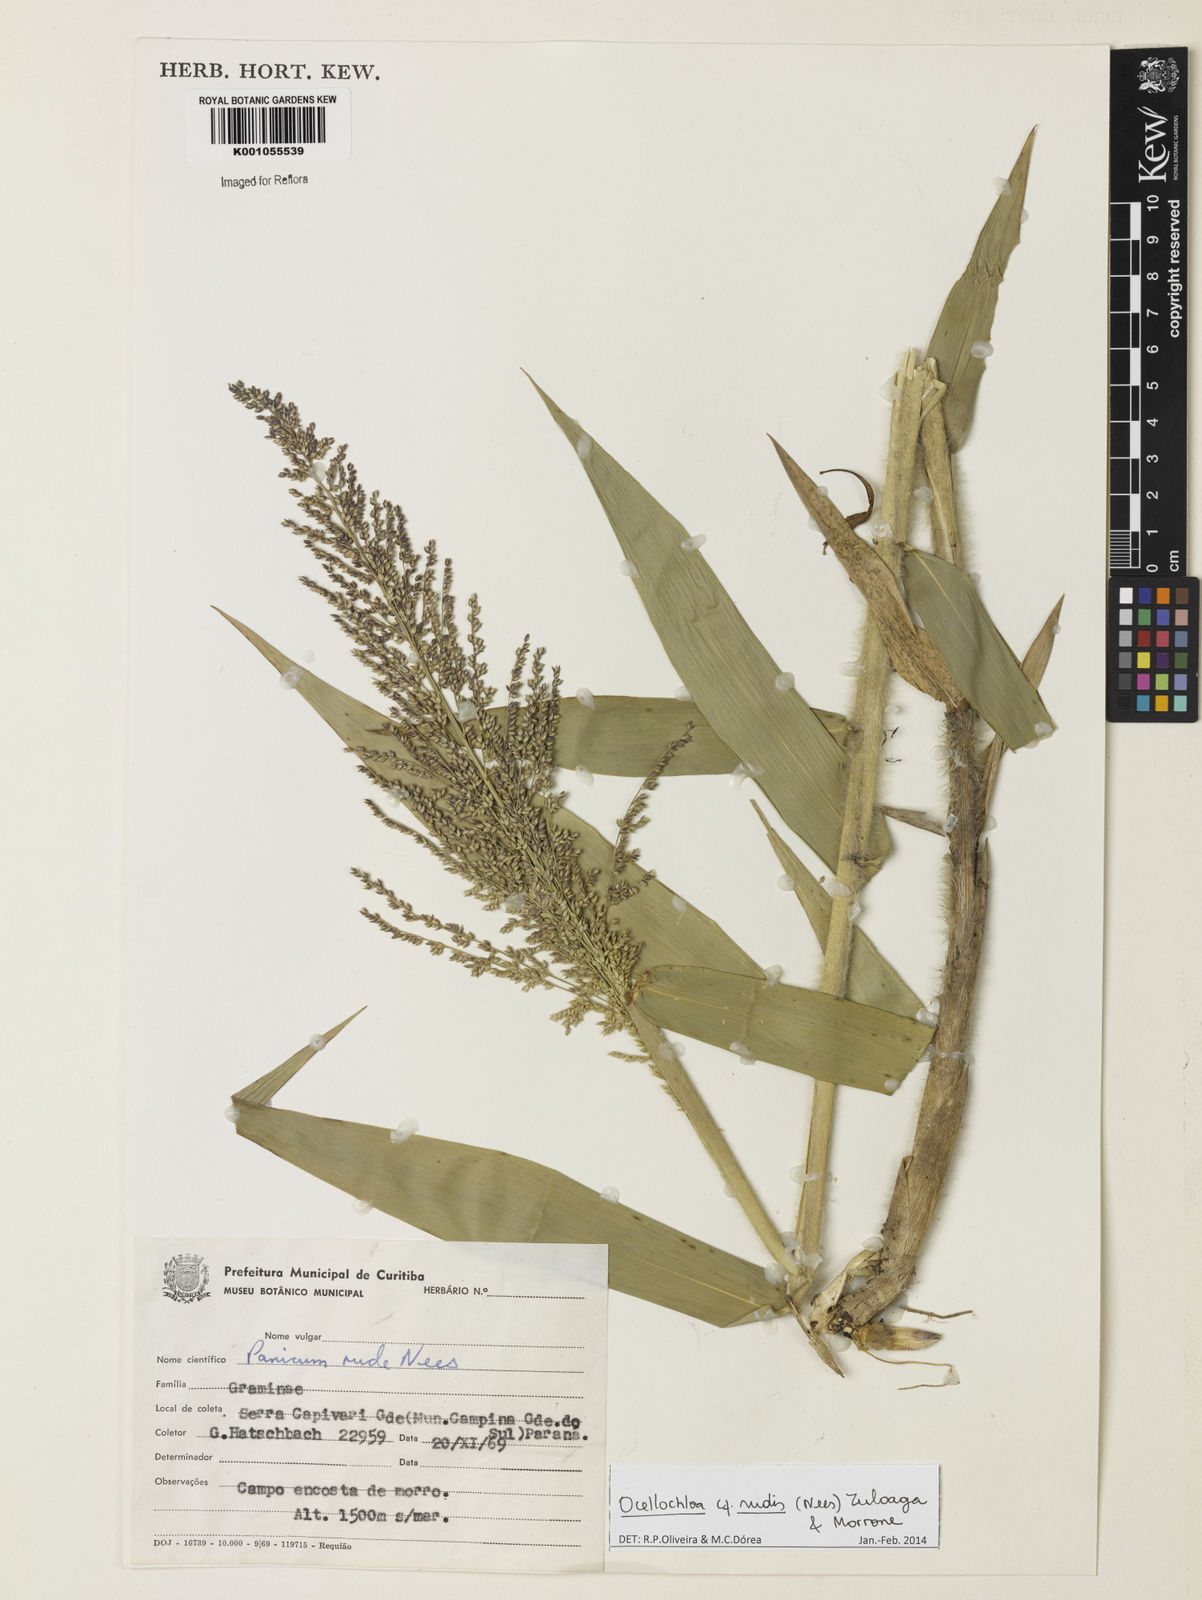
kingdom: Plantae
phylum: Tracheophyta
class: Liliopsida
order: Poales
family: Poaceae
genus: Ocellochloa
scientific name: Ocellochloa rudis
